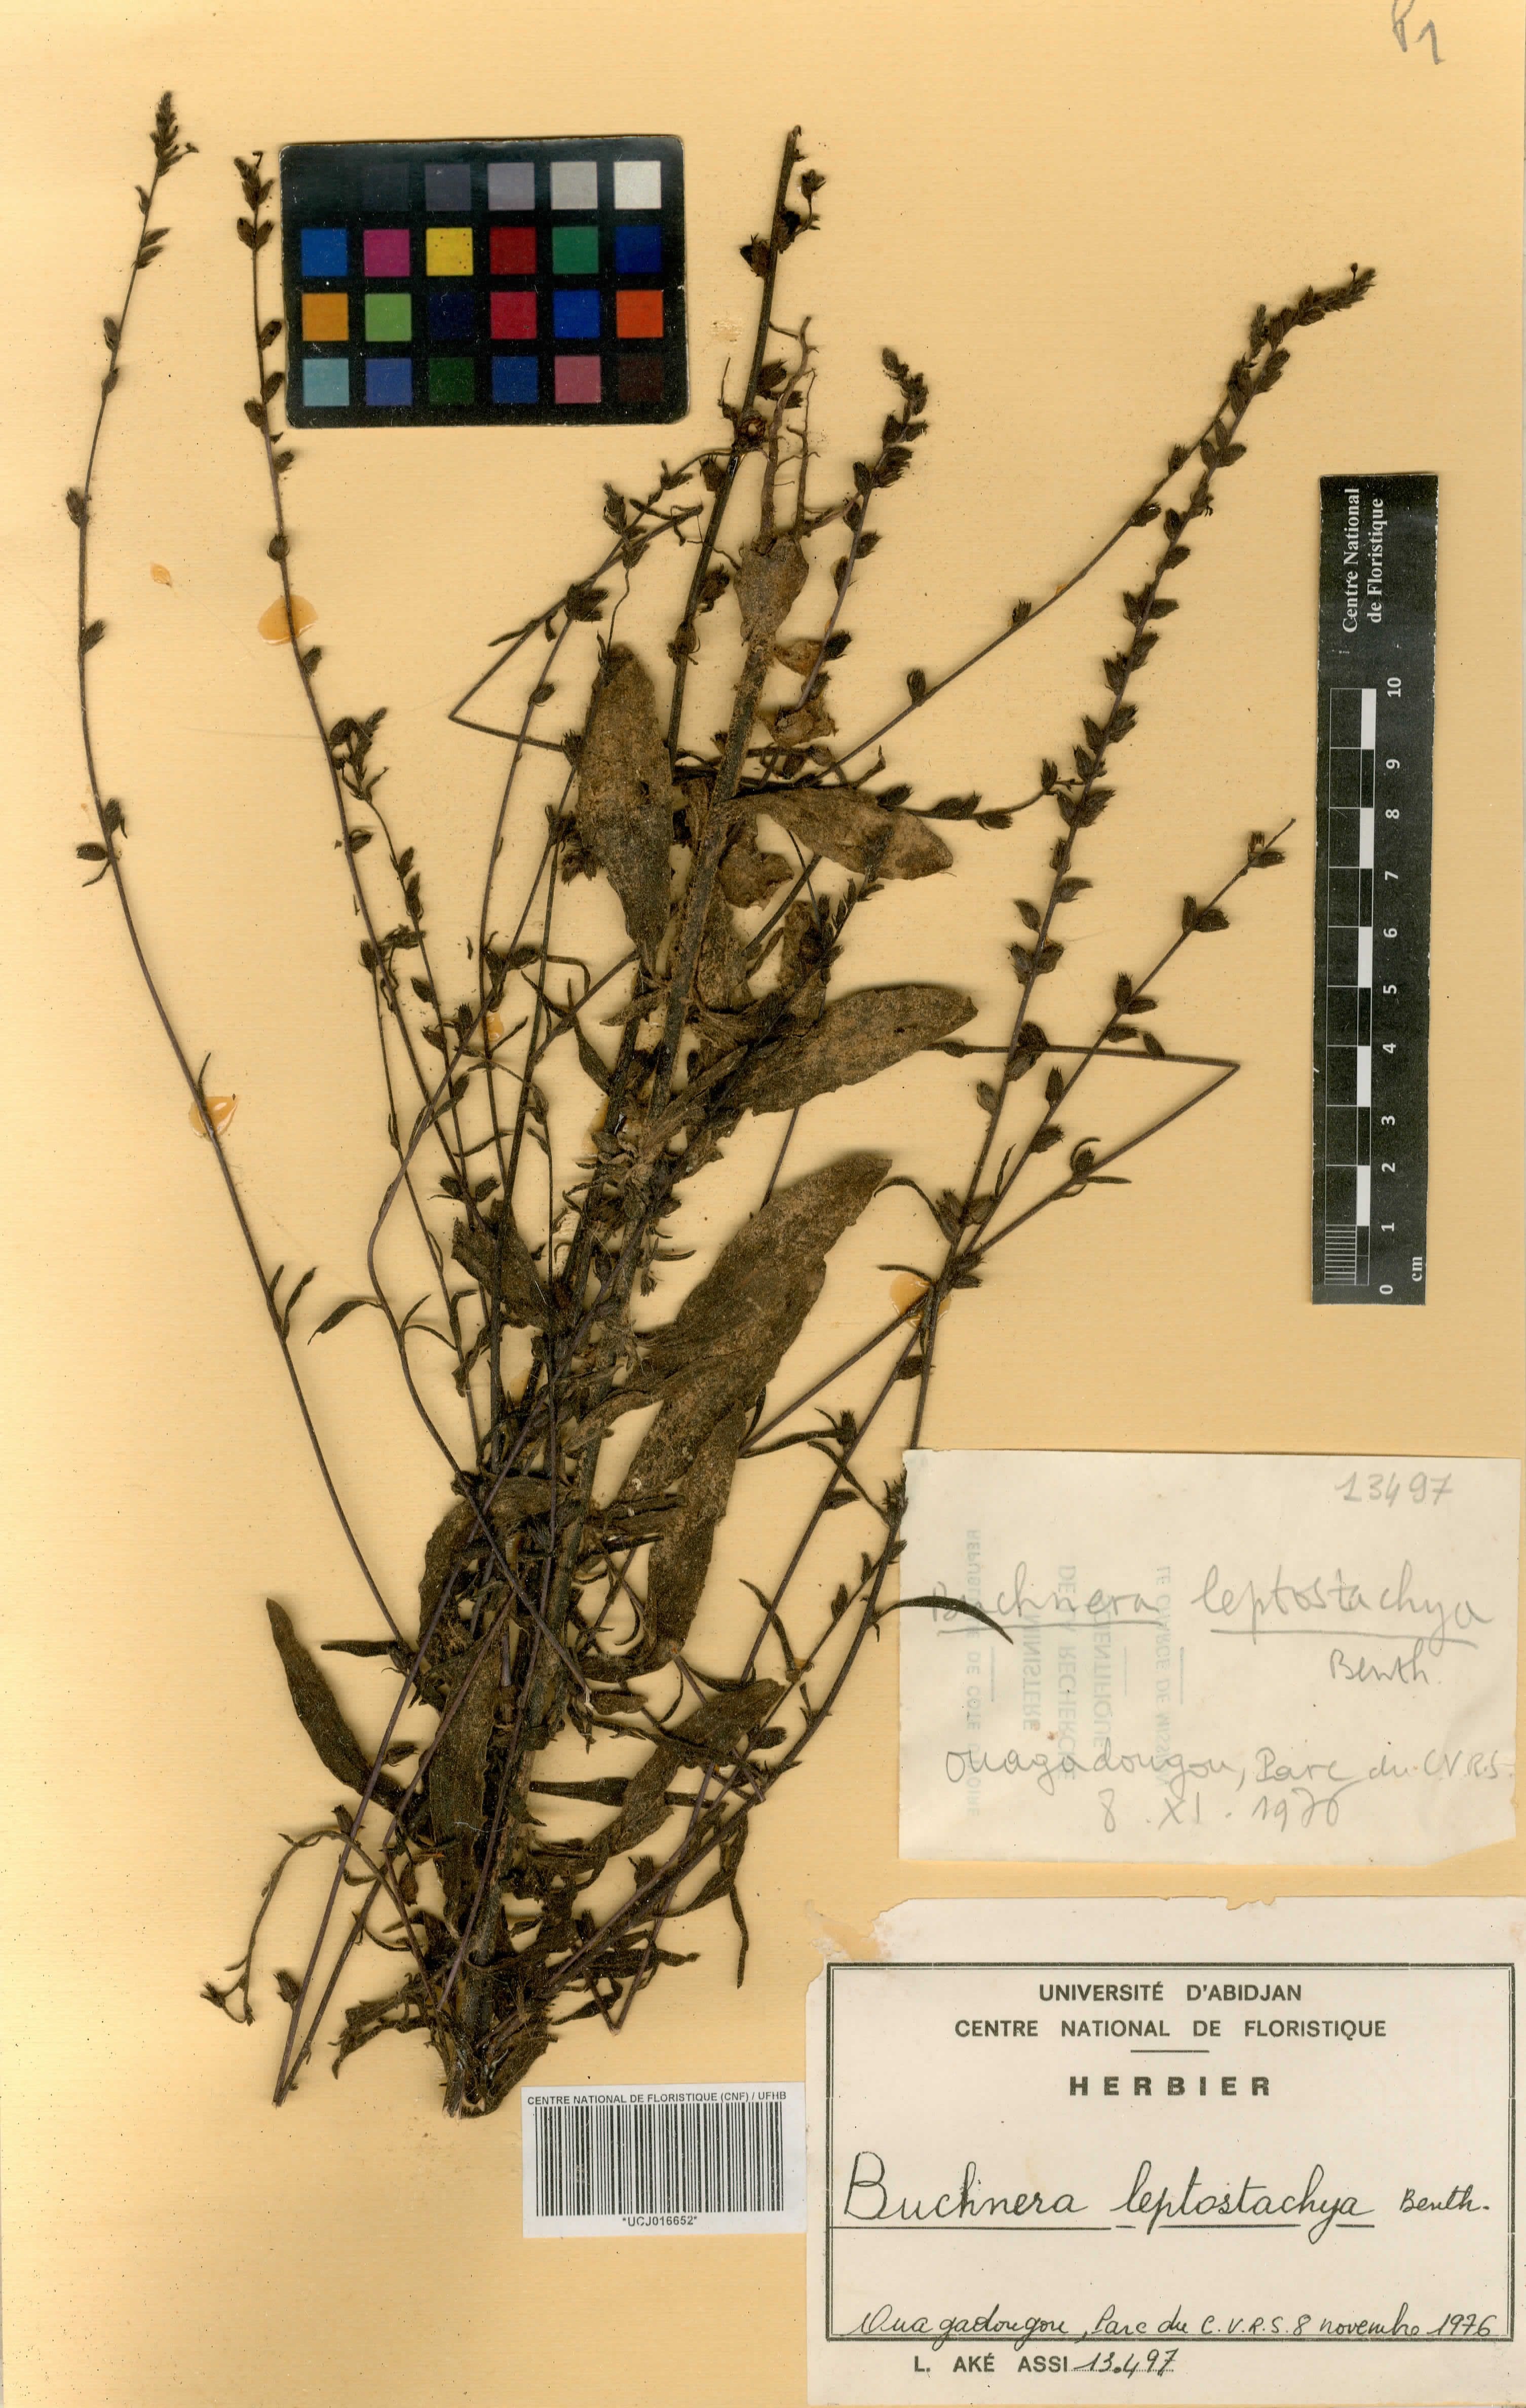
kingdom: Plantae
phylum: Tracheophyta
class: Magnoliopsida
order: Lamiales
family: Orobanchaceae
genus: Buchnera
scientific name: Buchnera leptostachya
